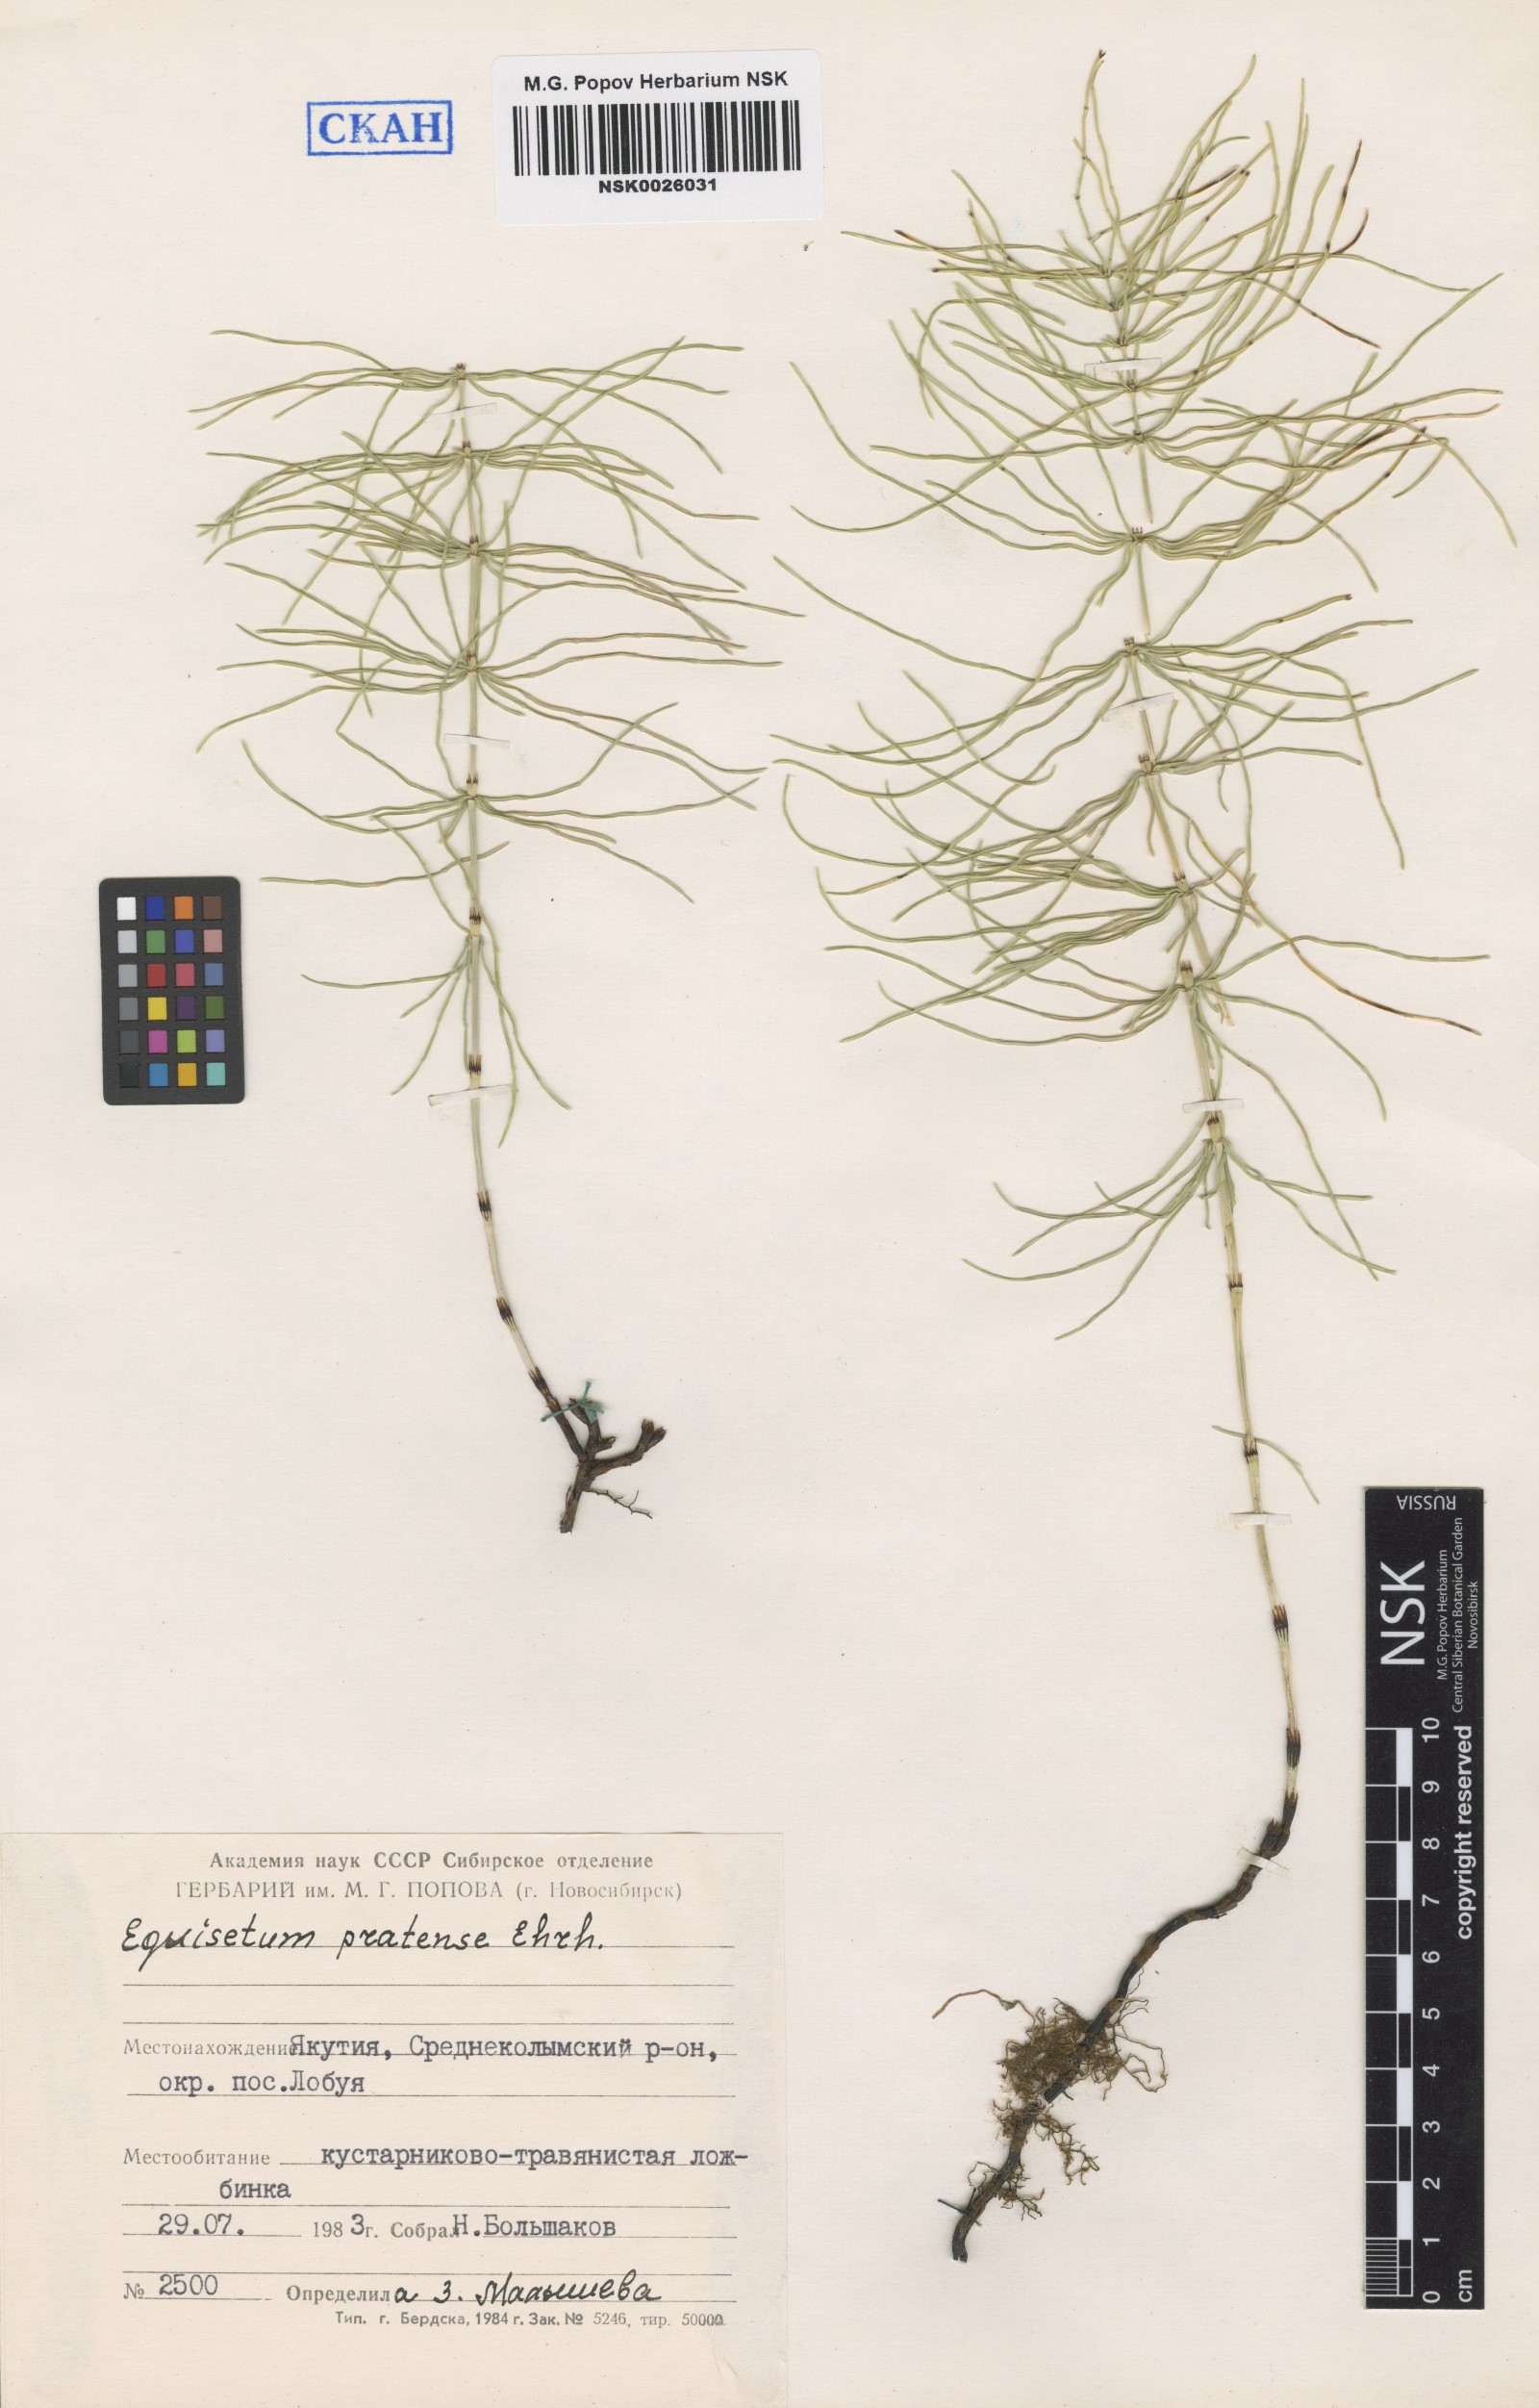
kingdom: Plantae
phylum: Tracheophyta
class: Polypodiopsida
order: Equisetales
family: Equisetaceae
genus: Equisetum
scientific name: Equisetum pratense
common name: Meadow horsetail
